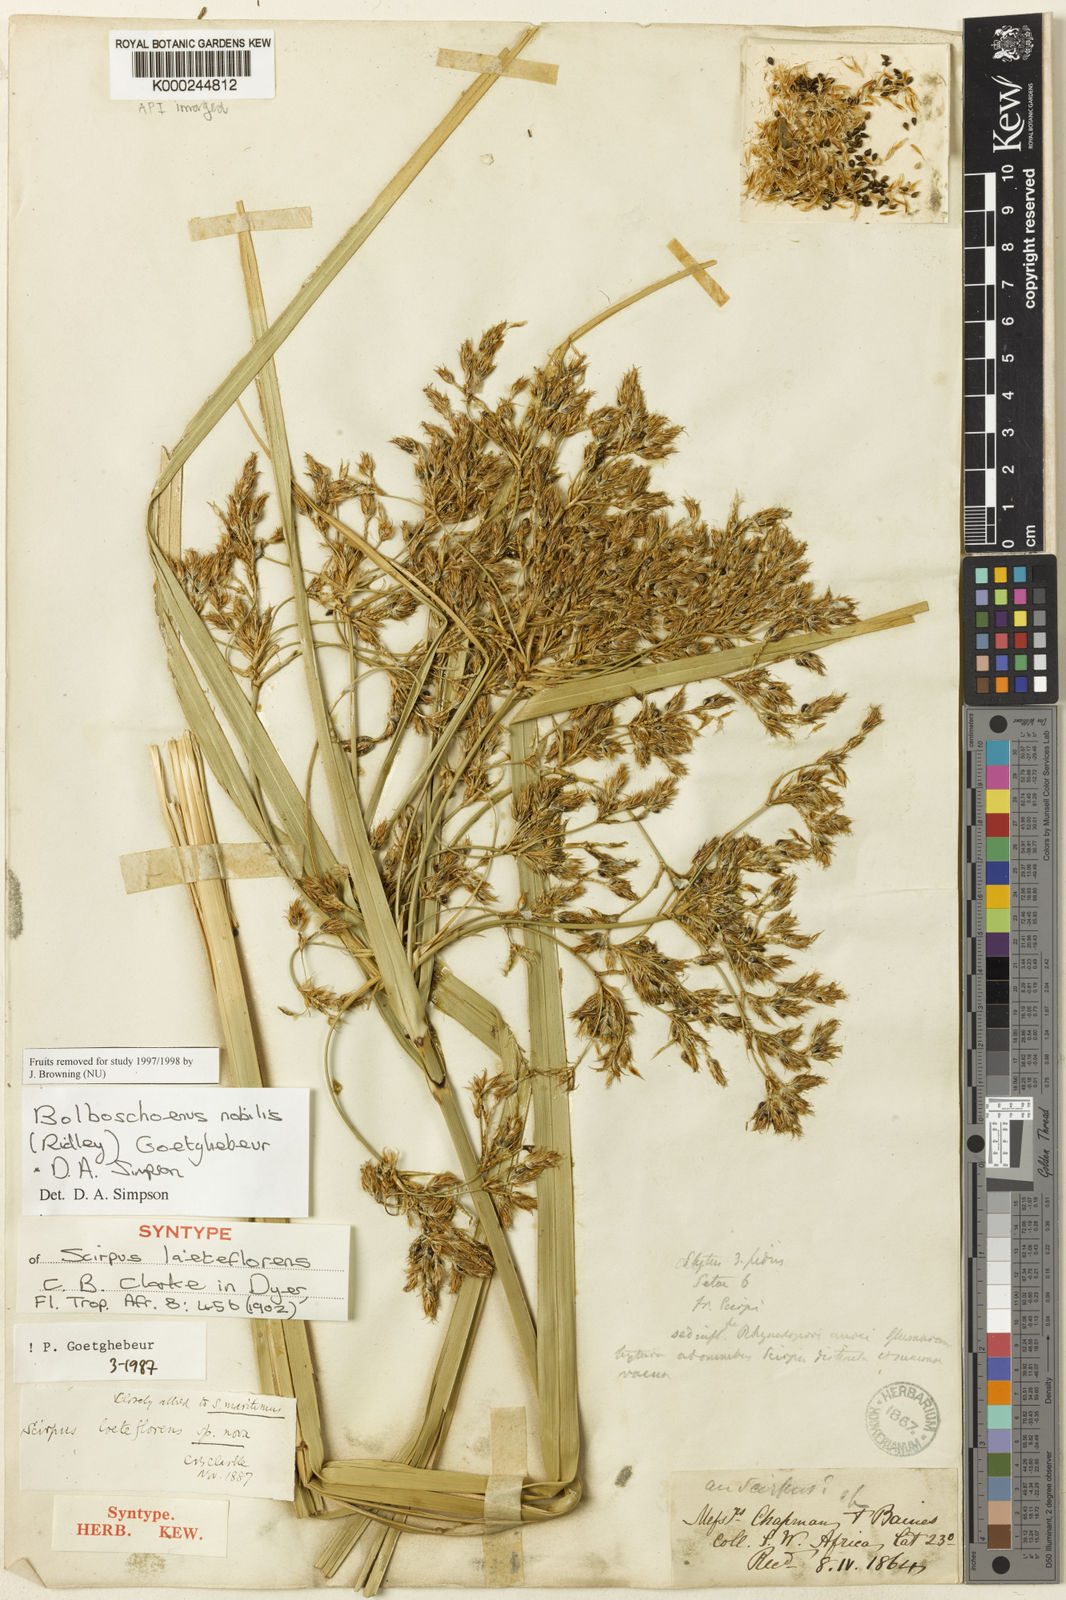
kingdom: Plantae
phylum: Tracheophyta
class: Liliopsida
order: Poales
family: Cyperaceae
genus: Bolboschoenus
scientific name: Bolboschoenus nobilis
